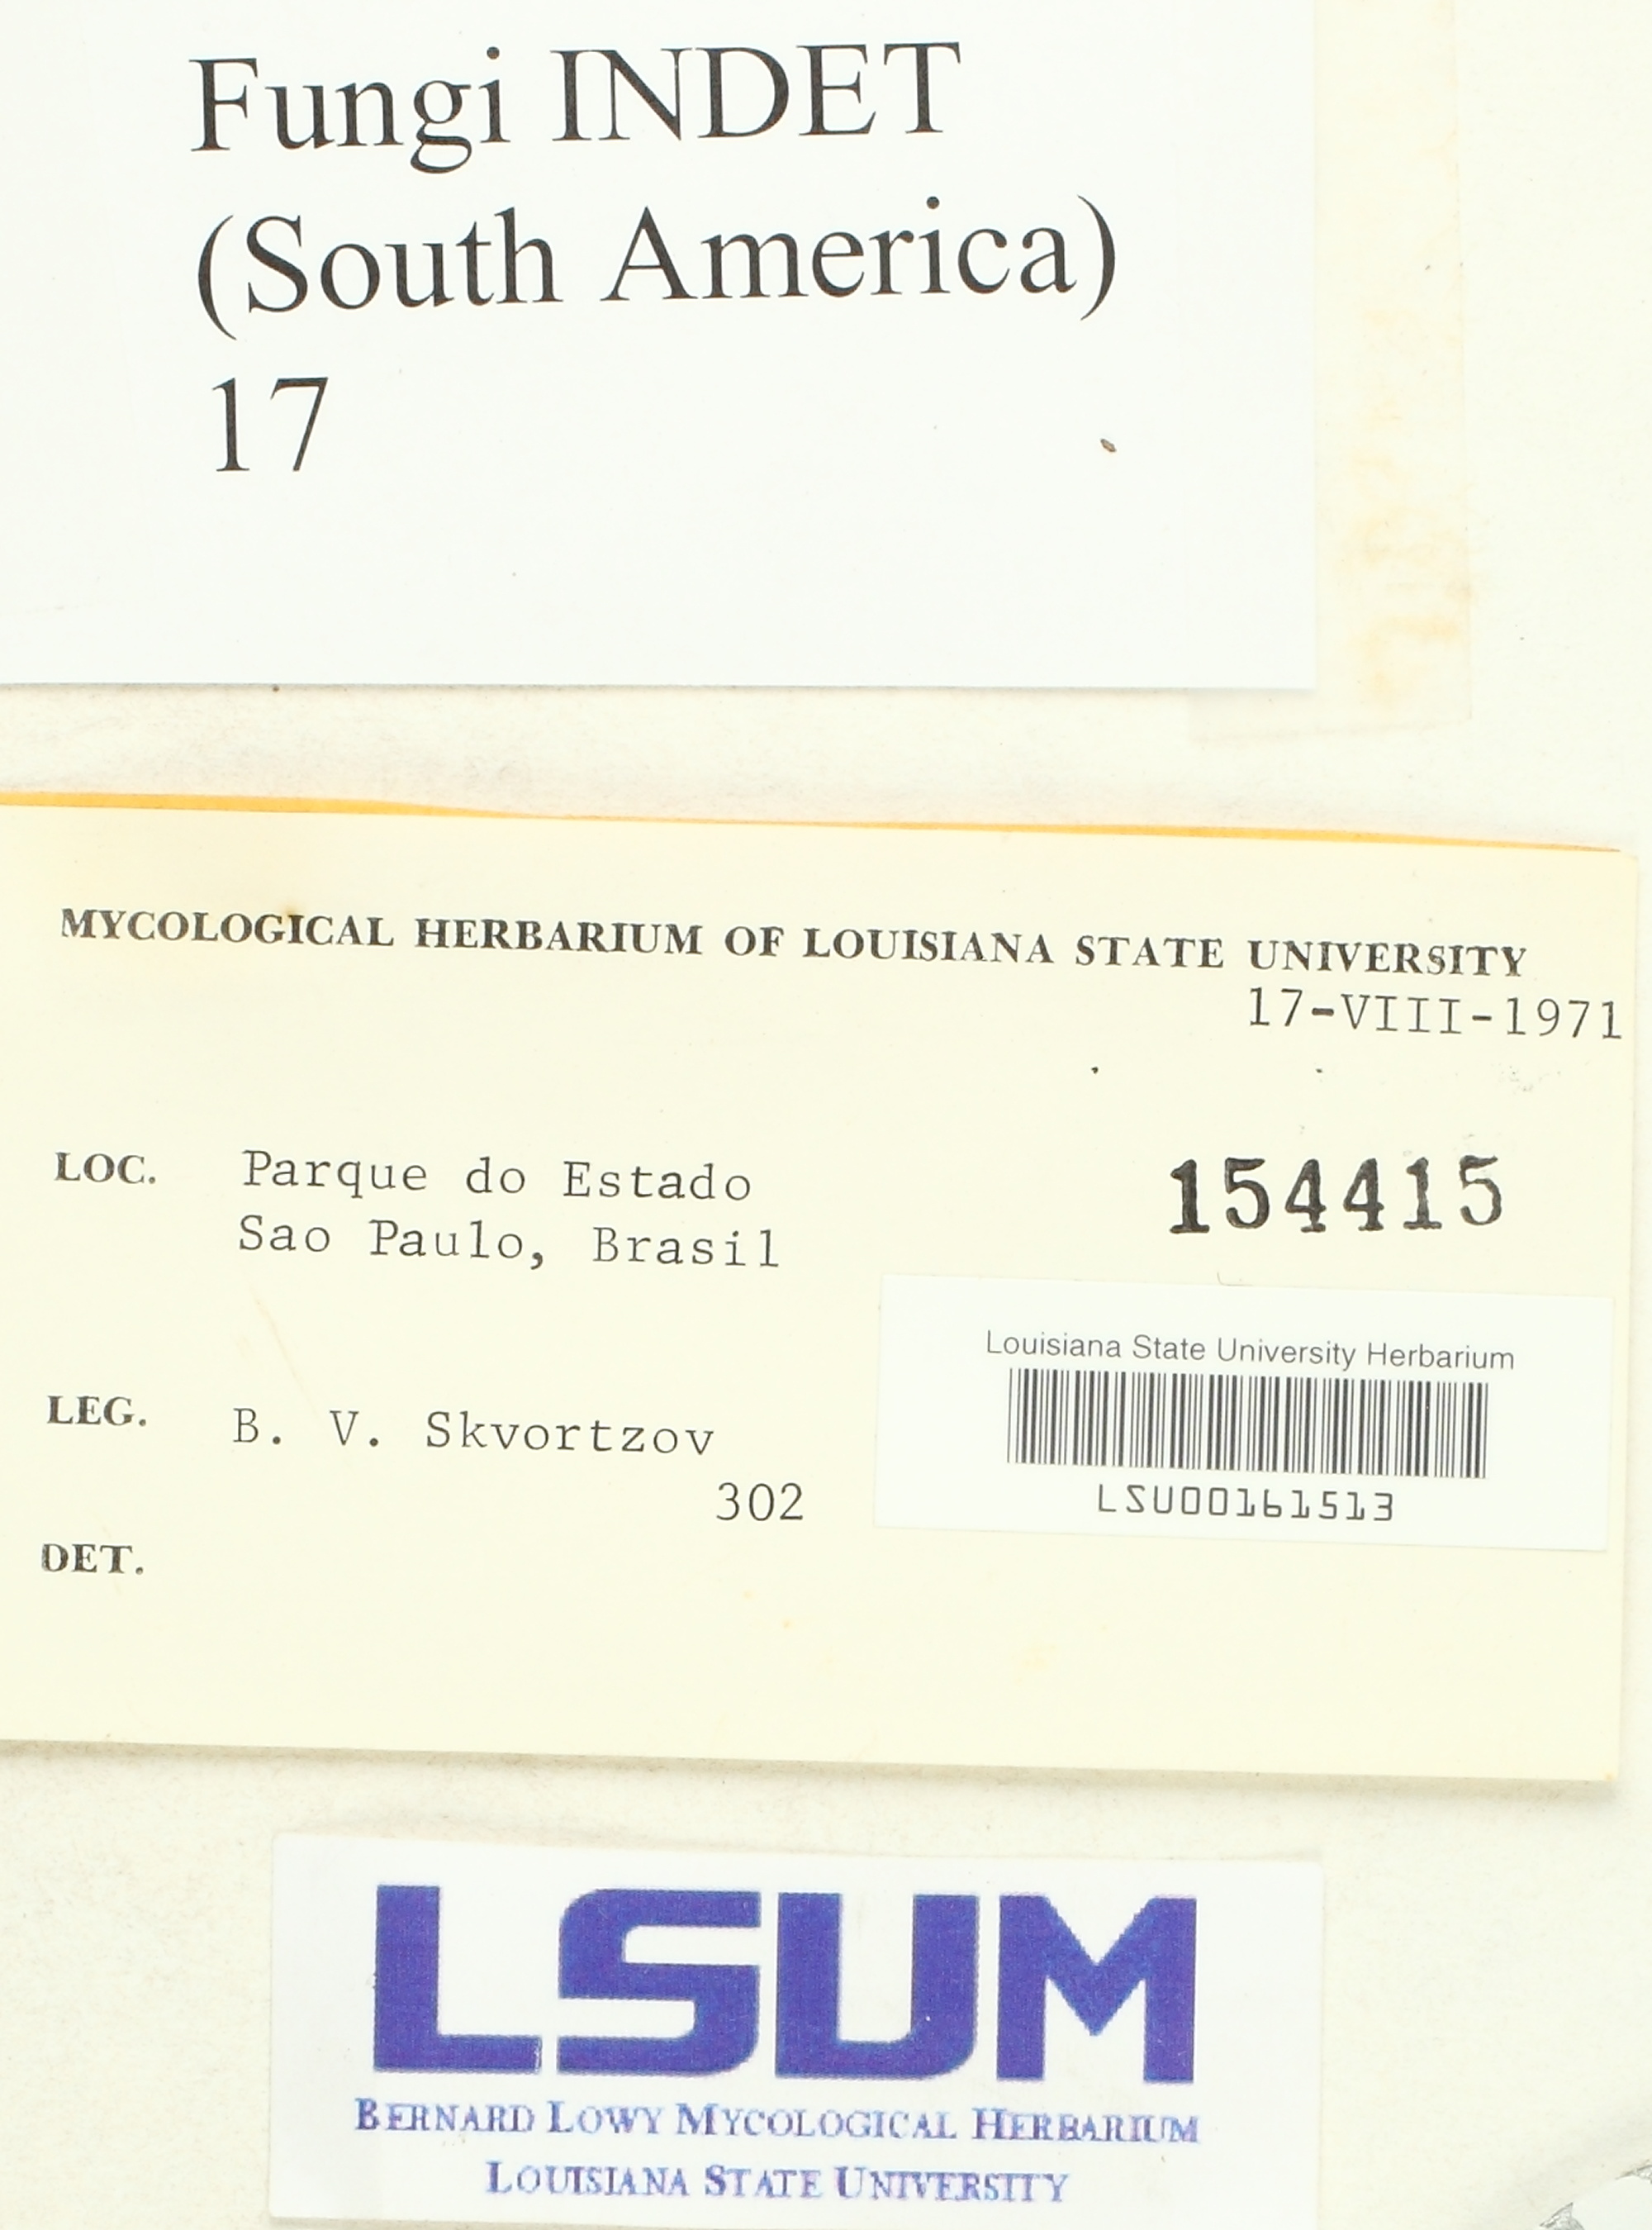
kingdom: Fungi
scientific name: Fungi
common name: Fungi
